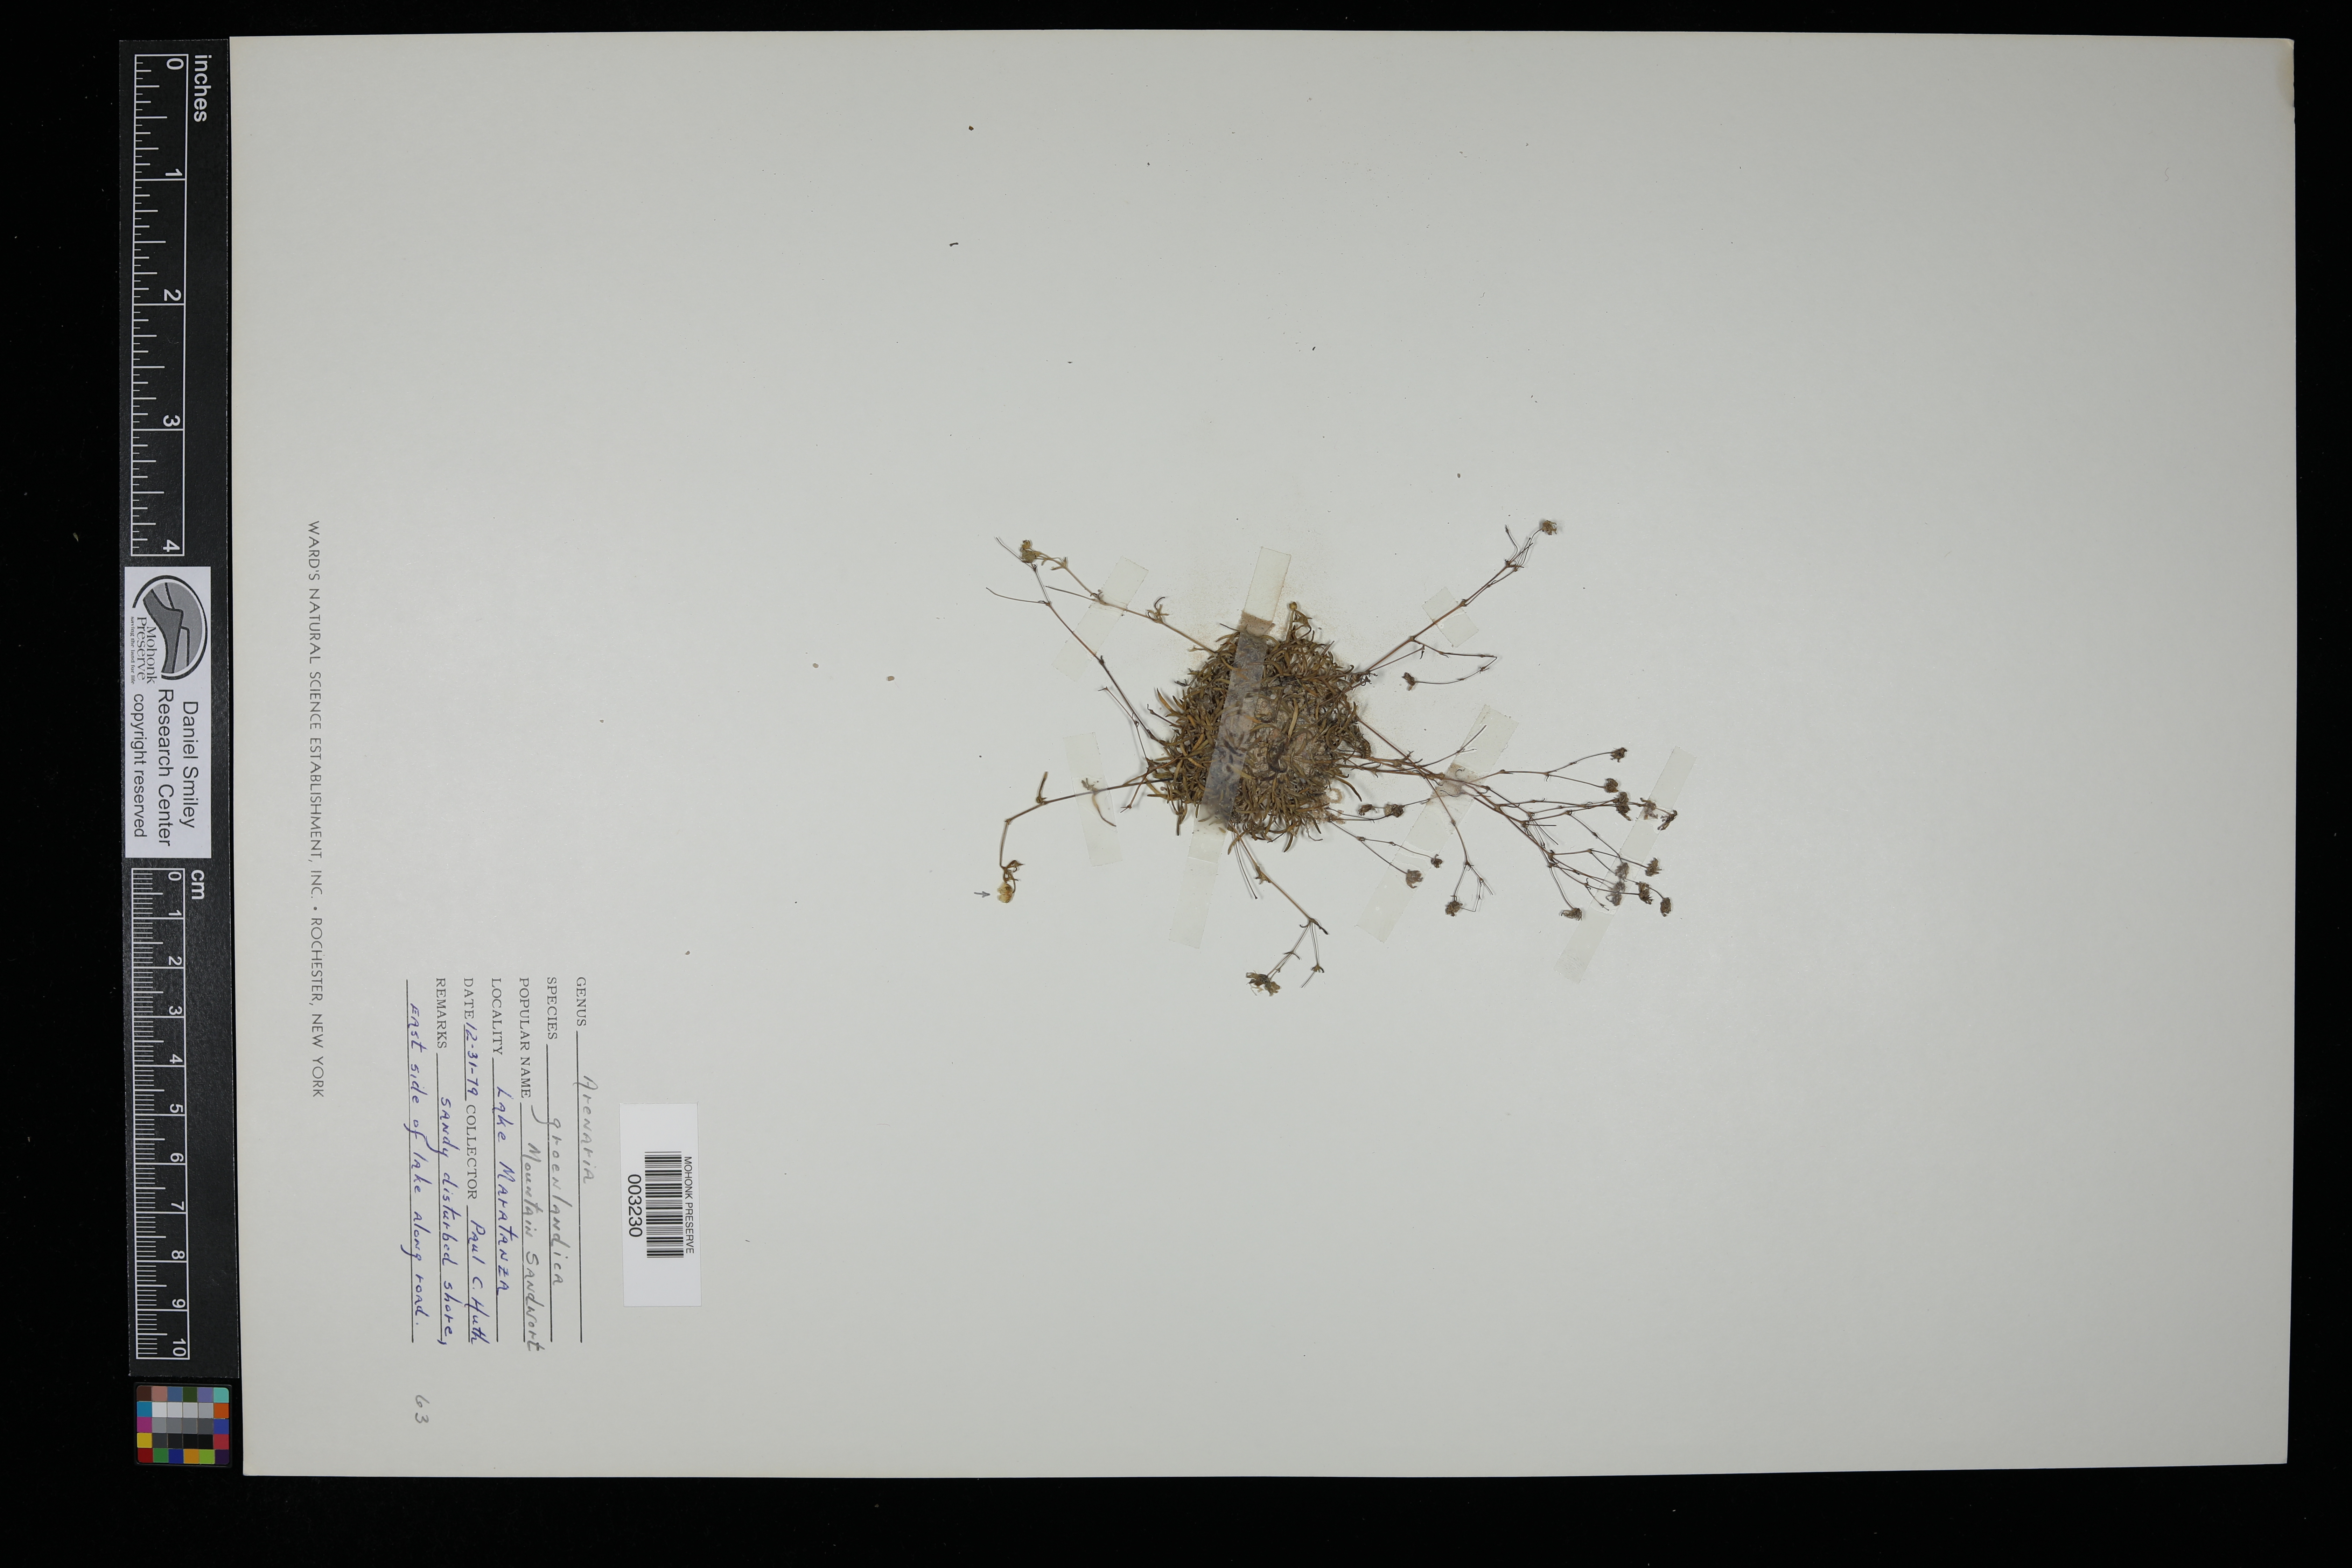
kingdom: Plantae
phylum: Tracheophyta
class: Magnoliopsida
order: Caryophyllales
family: Caryophyllaceae
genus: Geocarpon
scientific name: Geocarpon groenlandicum
